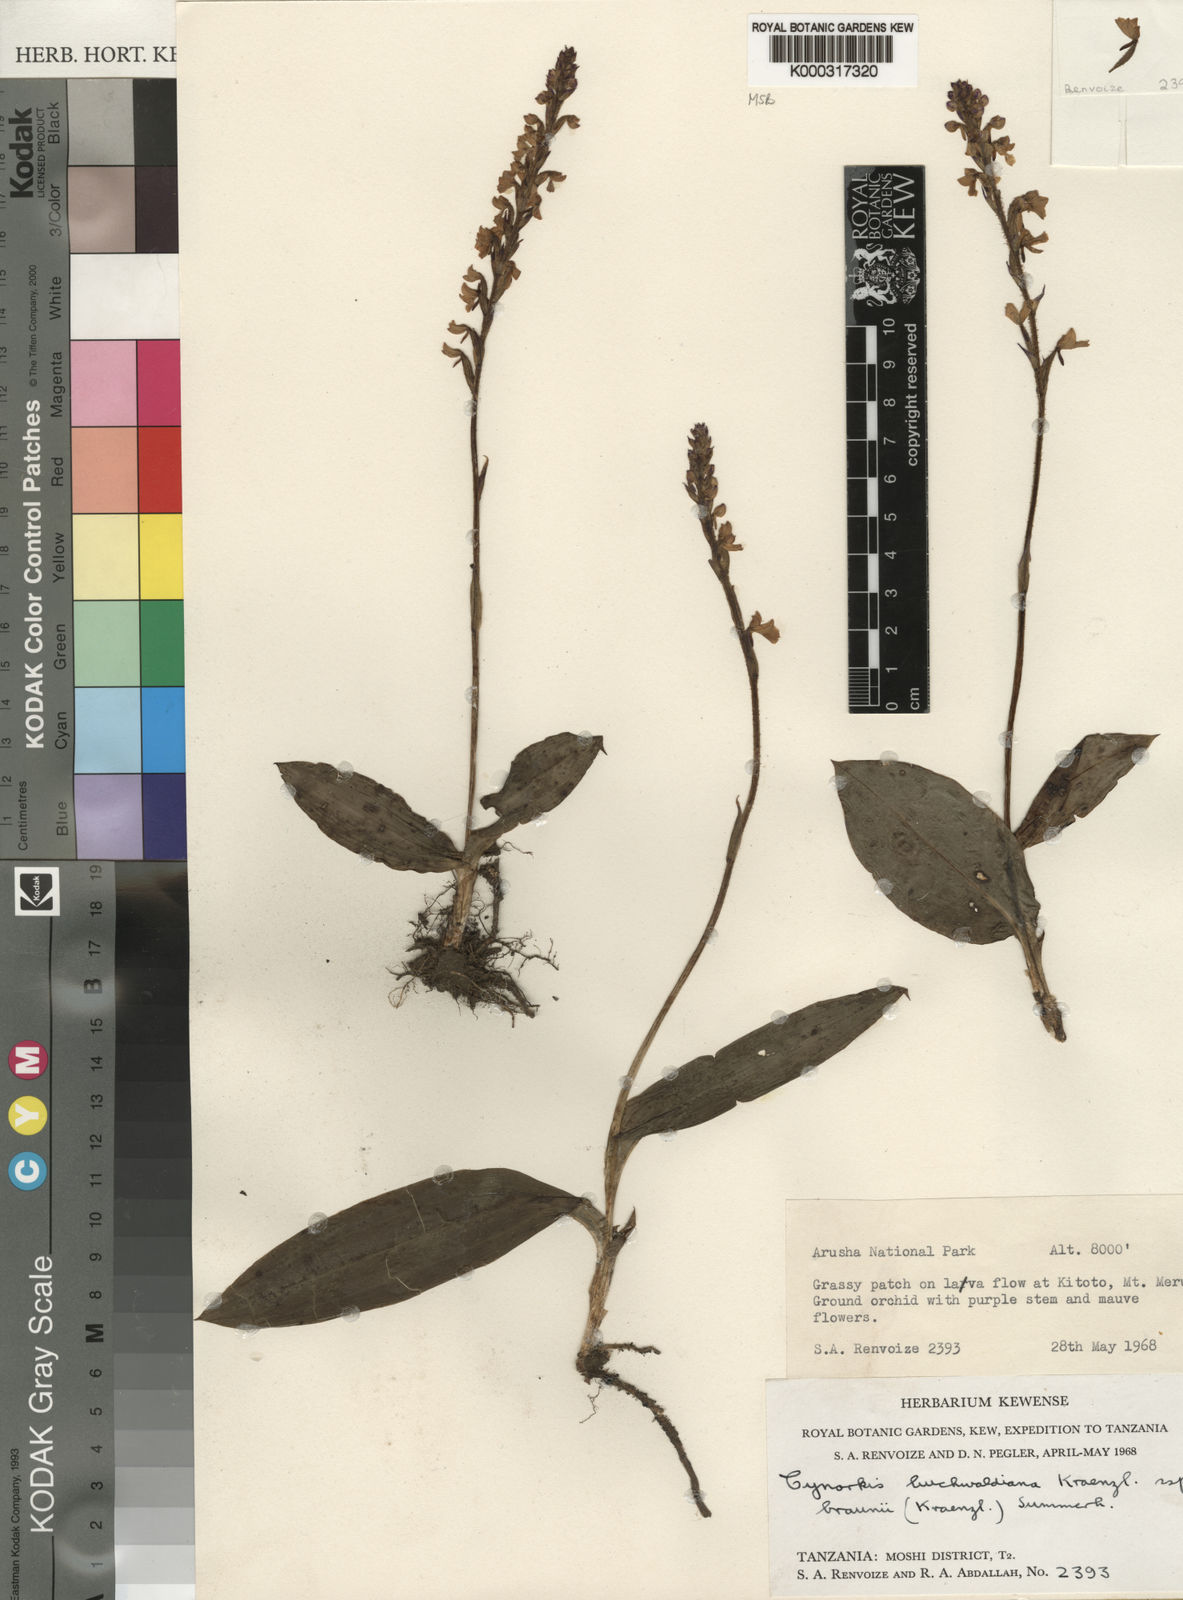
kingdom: Plantae
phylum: Tracheophyta
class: Liliopsida
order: Asparagales
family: Orchidaceae
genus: Cynorkis
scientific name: Cynorkis buchwaldiana
